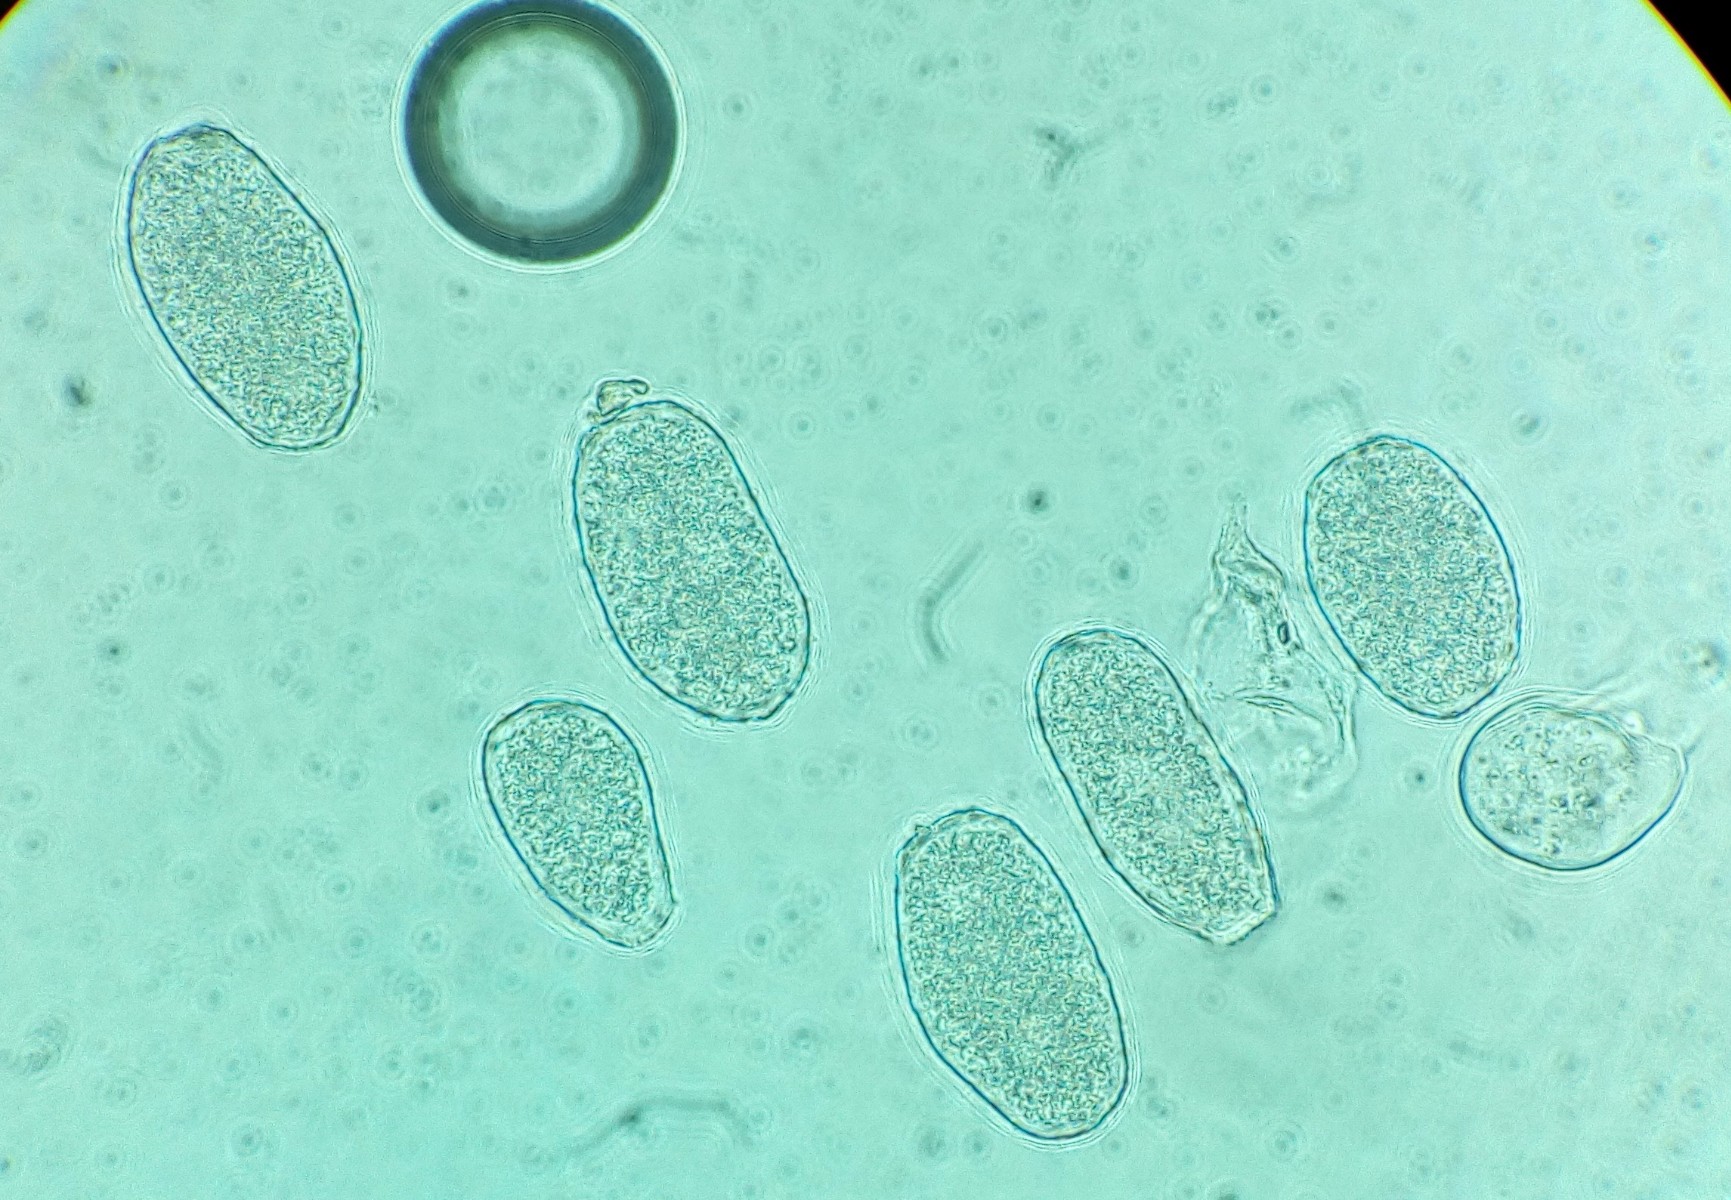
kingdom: Fungi
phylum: Basidiomycota
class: Pucciniomycetes
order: Pucciniales
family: Milesinaceae
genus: Milesina
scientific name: Milesina kriegeriana
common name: mangeløv-bregnerust
